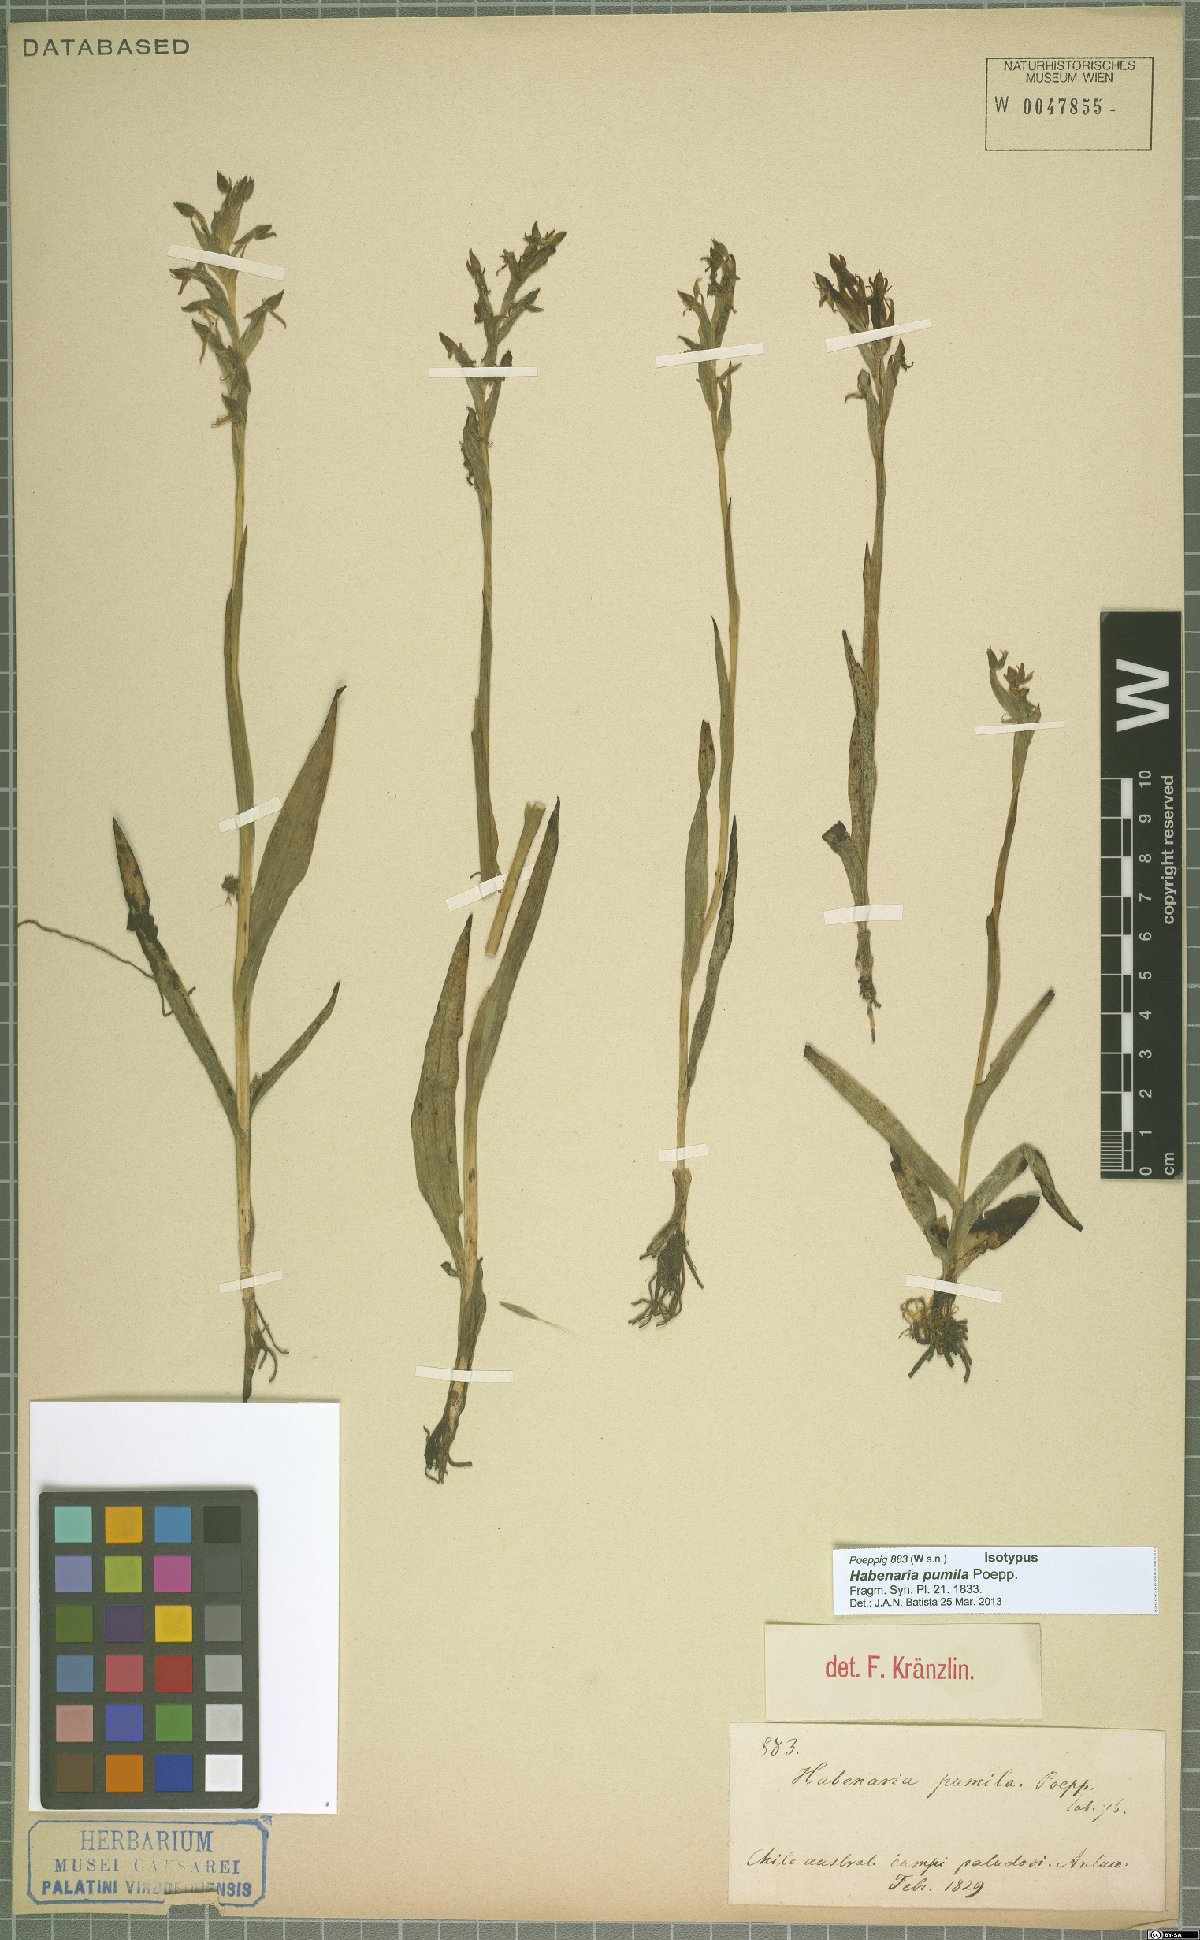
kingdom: Plantae
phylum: Tracheophyta
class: Liliopsida
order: Asparagales
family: Orchidaceae
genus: Habenaria
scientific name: Habenaria pumila
